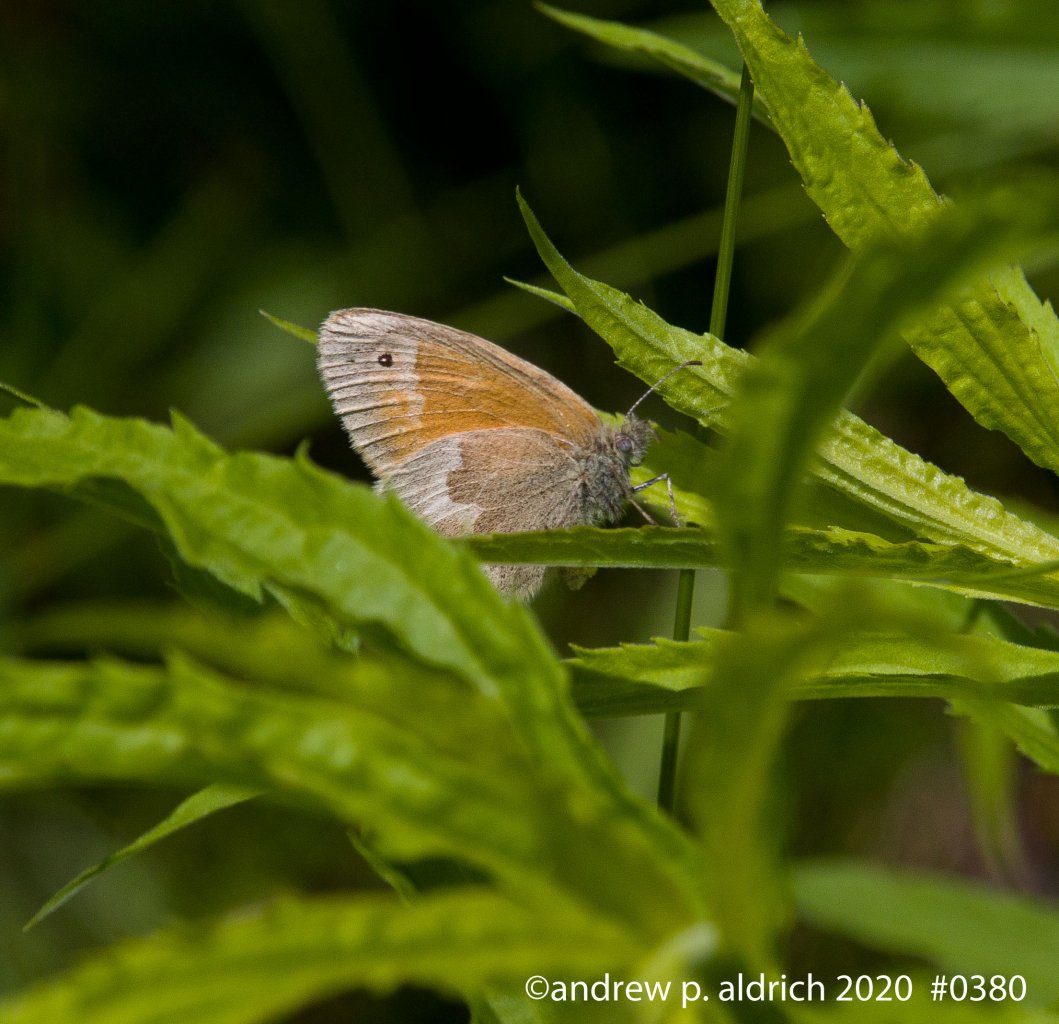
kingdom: Animalia
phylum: Arthropoda
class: Insecta
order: Lepidoptera
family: Nymphalidae
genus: Coenonympha
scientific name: Coenonympha tullia
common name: Large Heath
